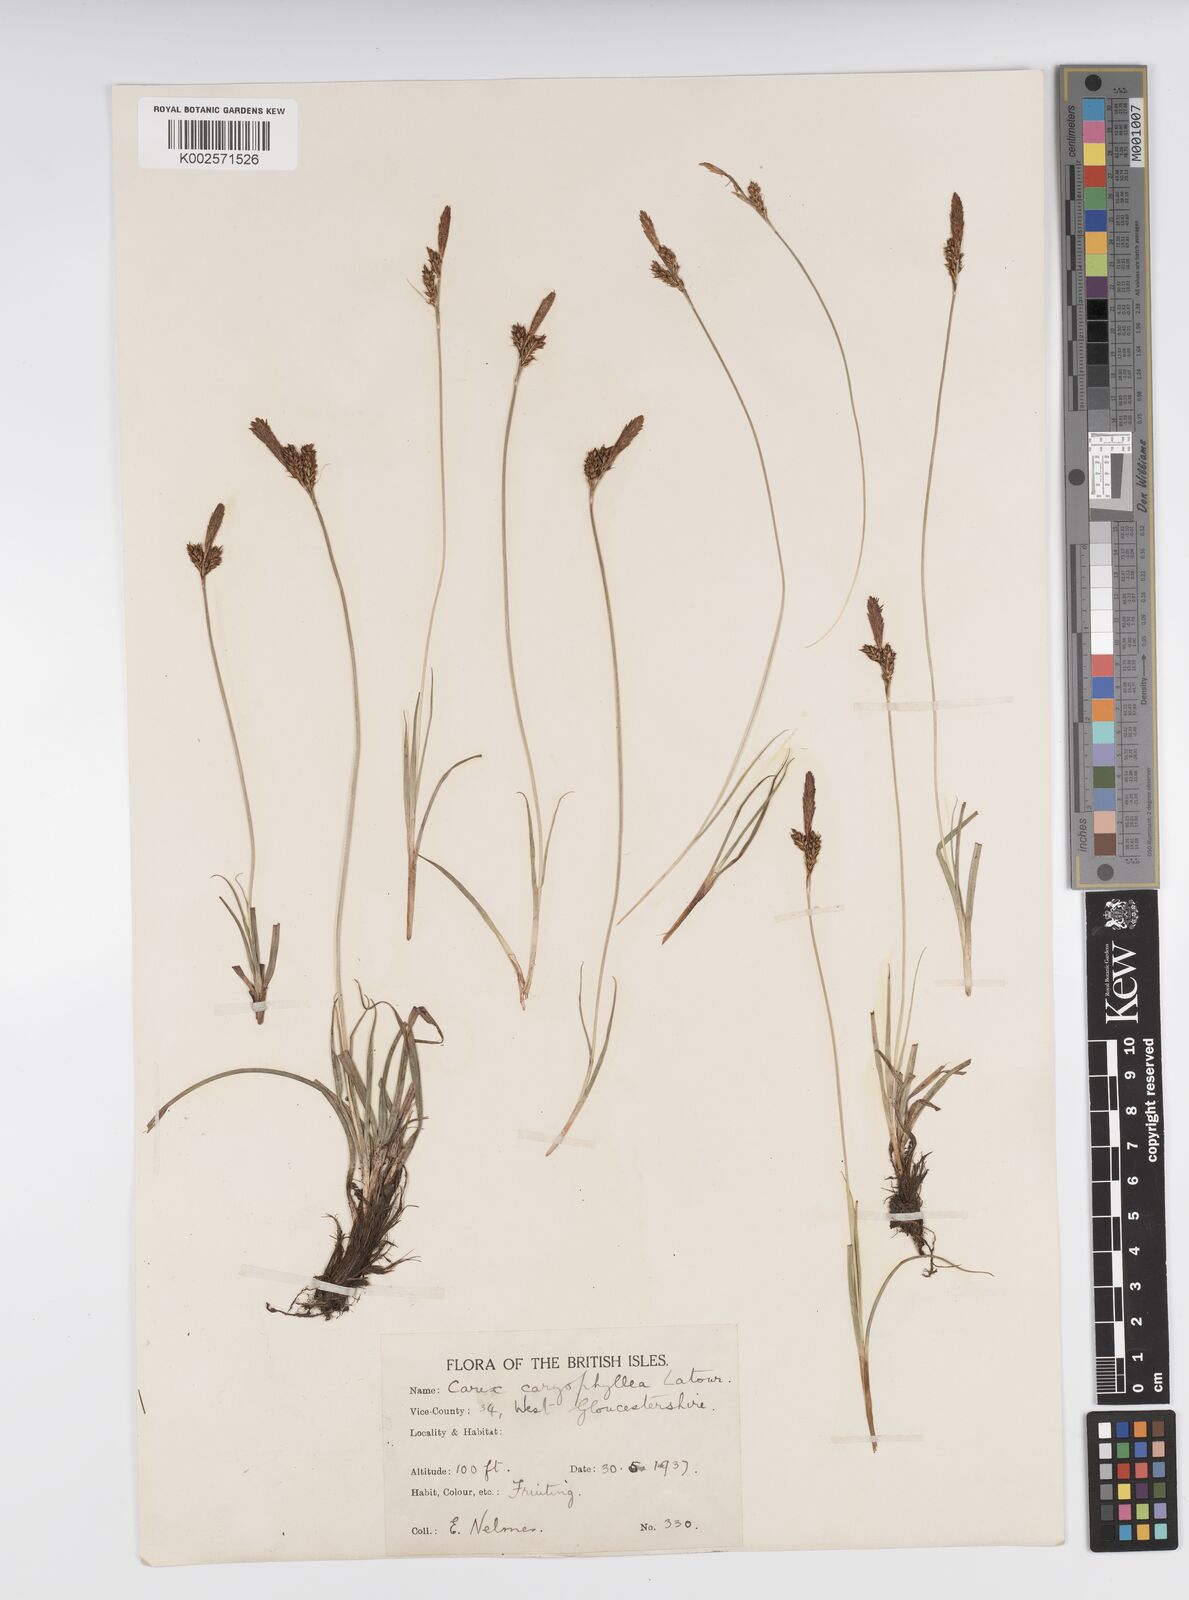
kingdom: Plantae
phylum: Tracheophyta
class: Liliopsida
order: Poales
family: Cyperaceae
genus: Carex
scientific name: Carex caryophyllea
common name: Spring sedge
